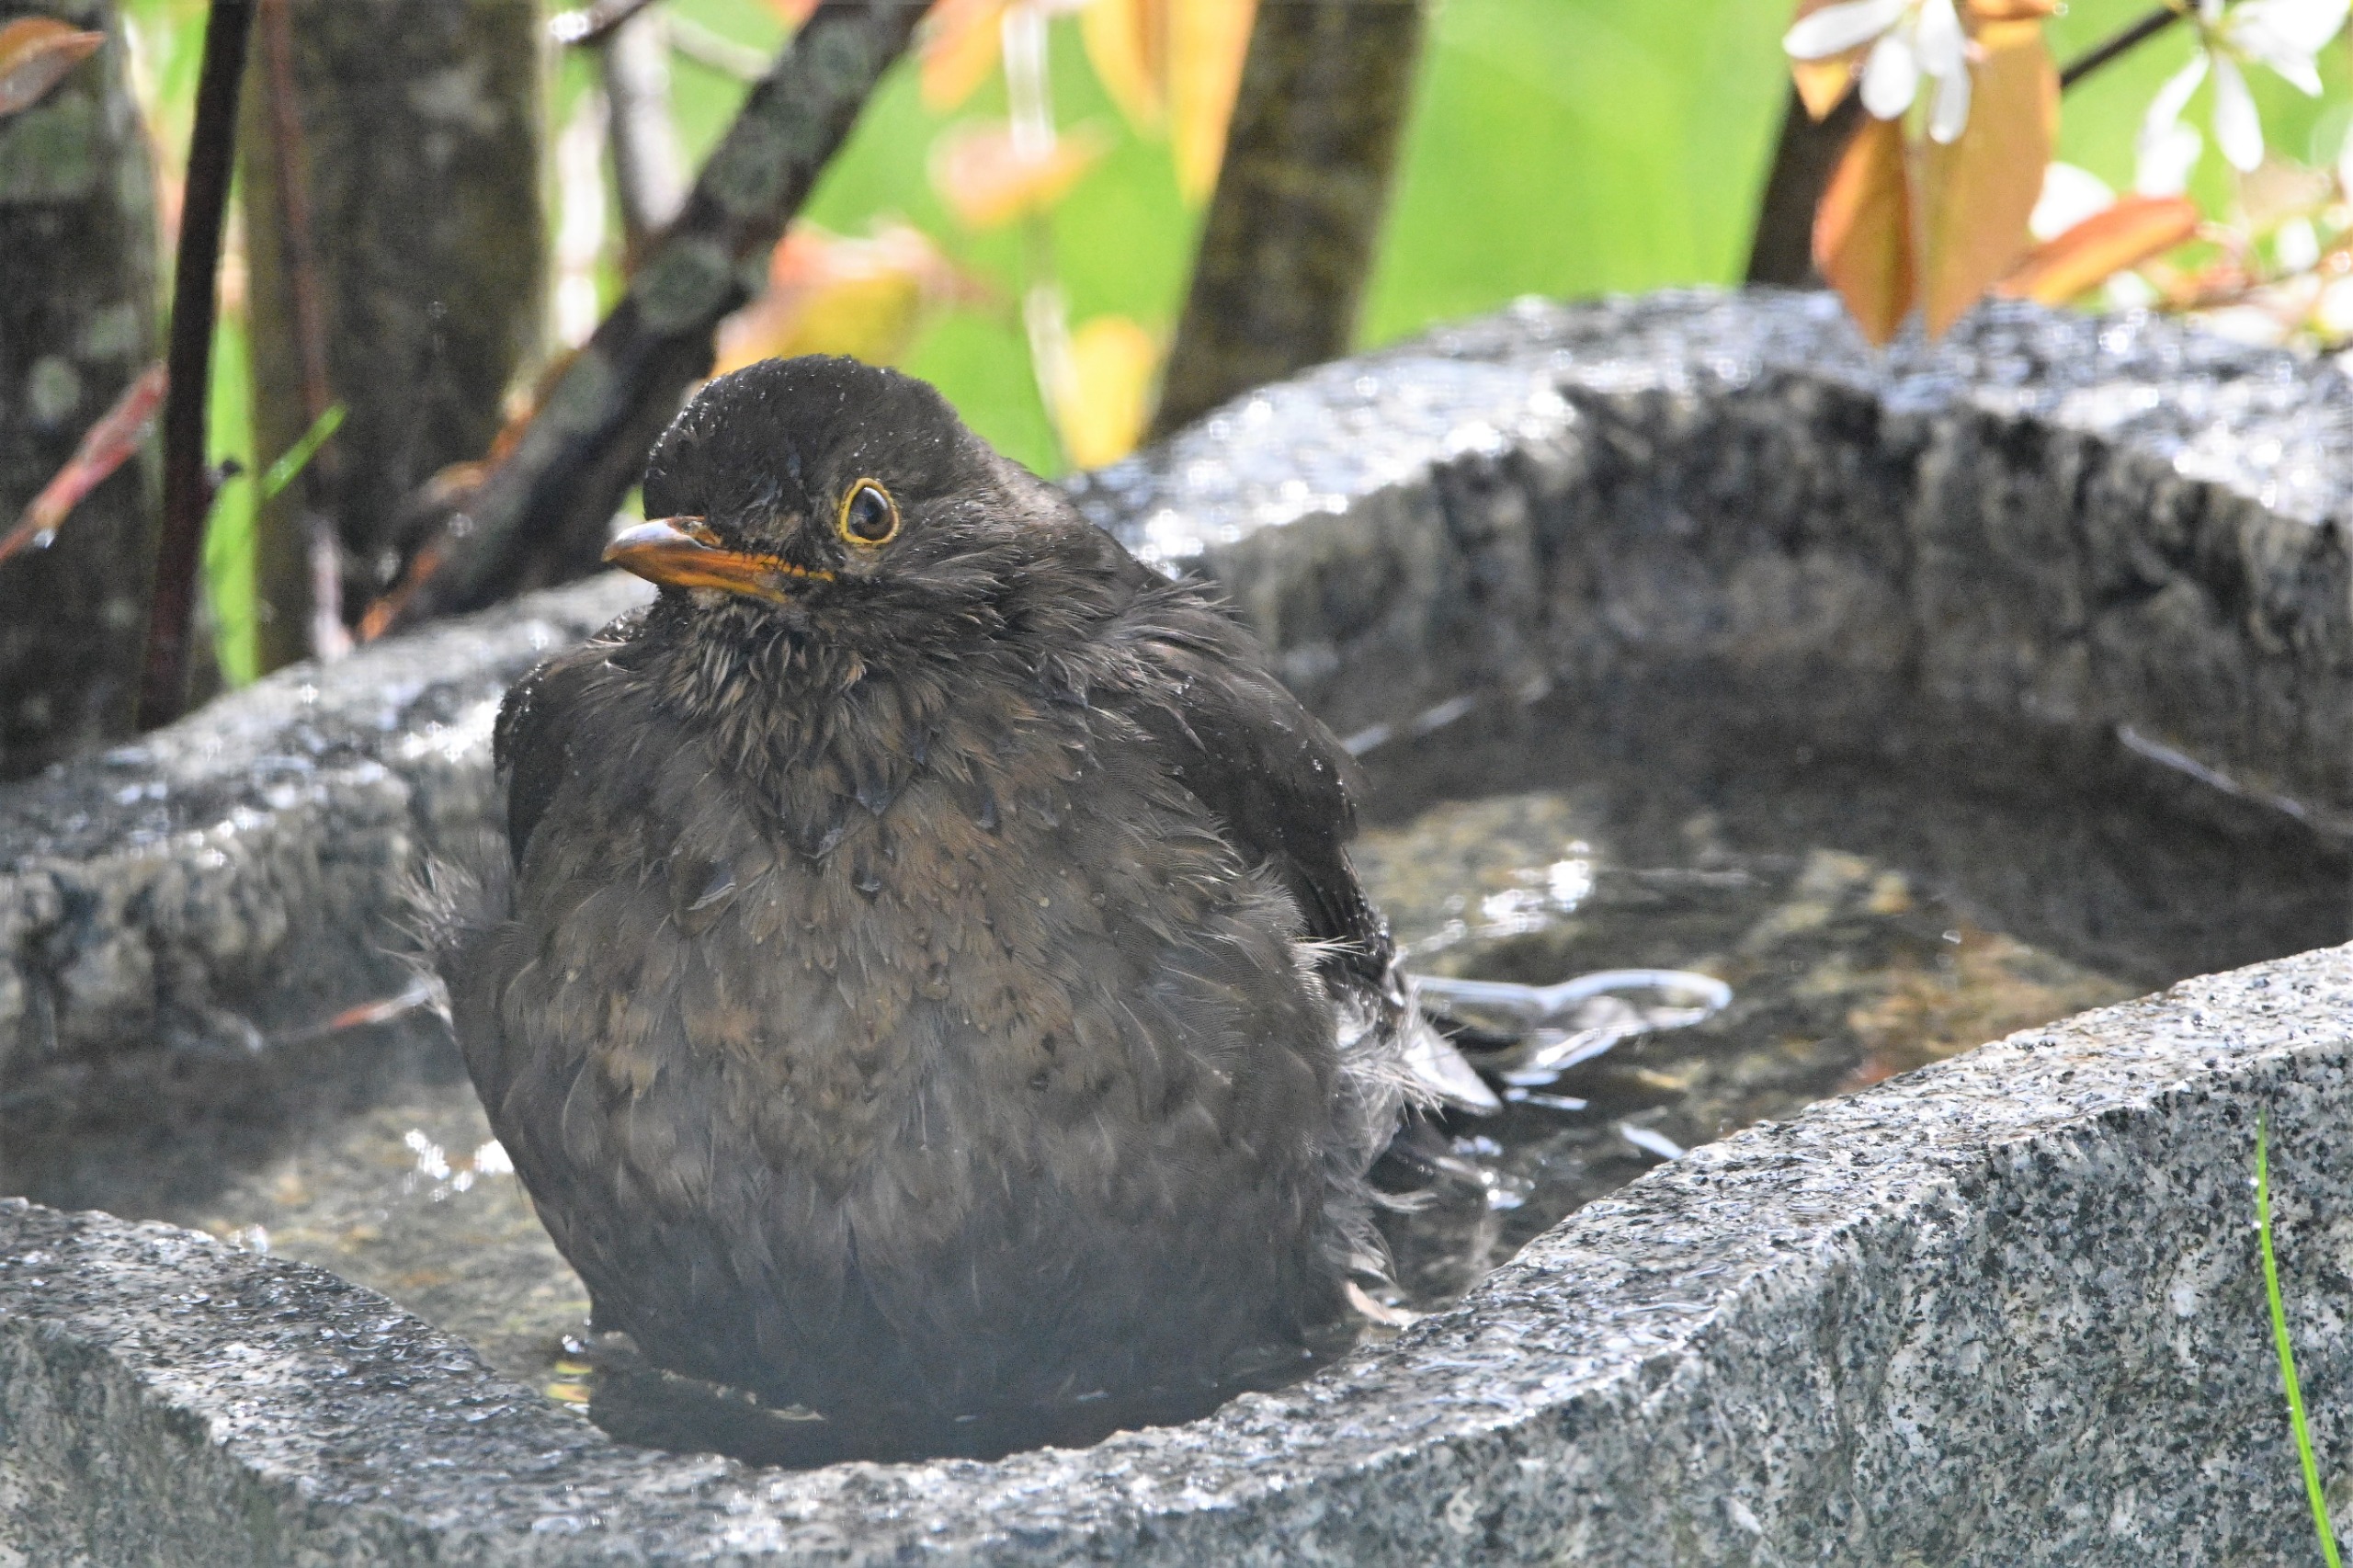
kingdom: Animalia
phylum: Chordata
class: Aves
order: Passeriformes
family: Turdidae
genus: Turdus
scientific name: Turdus merula
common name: Solsort
